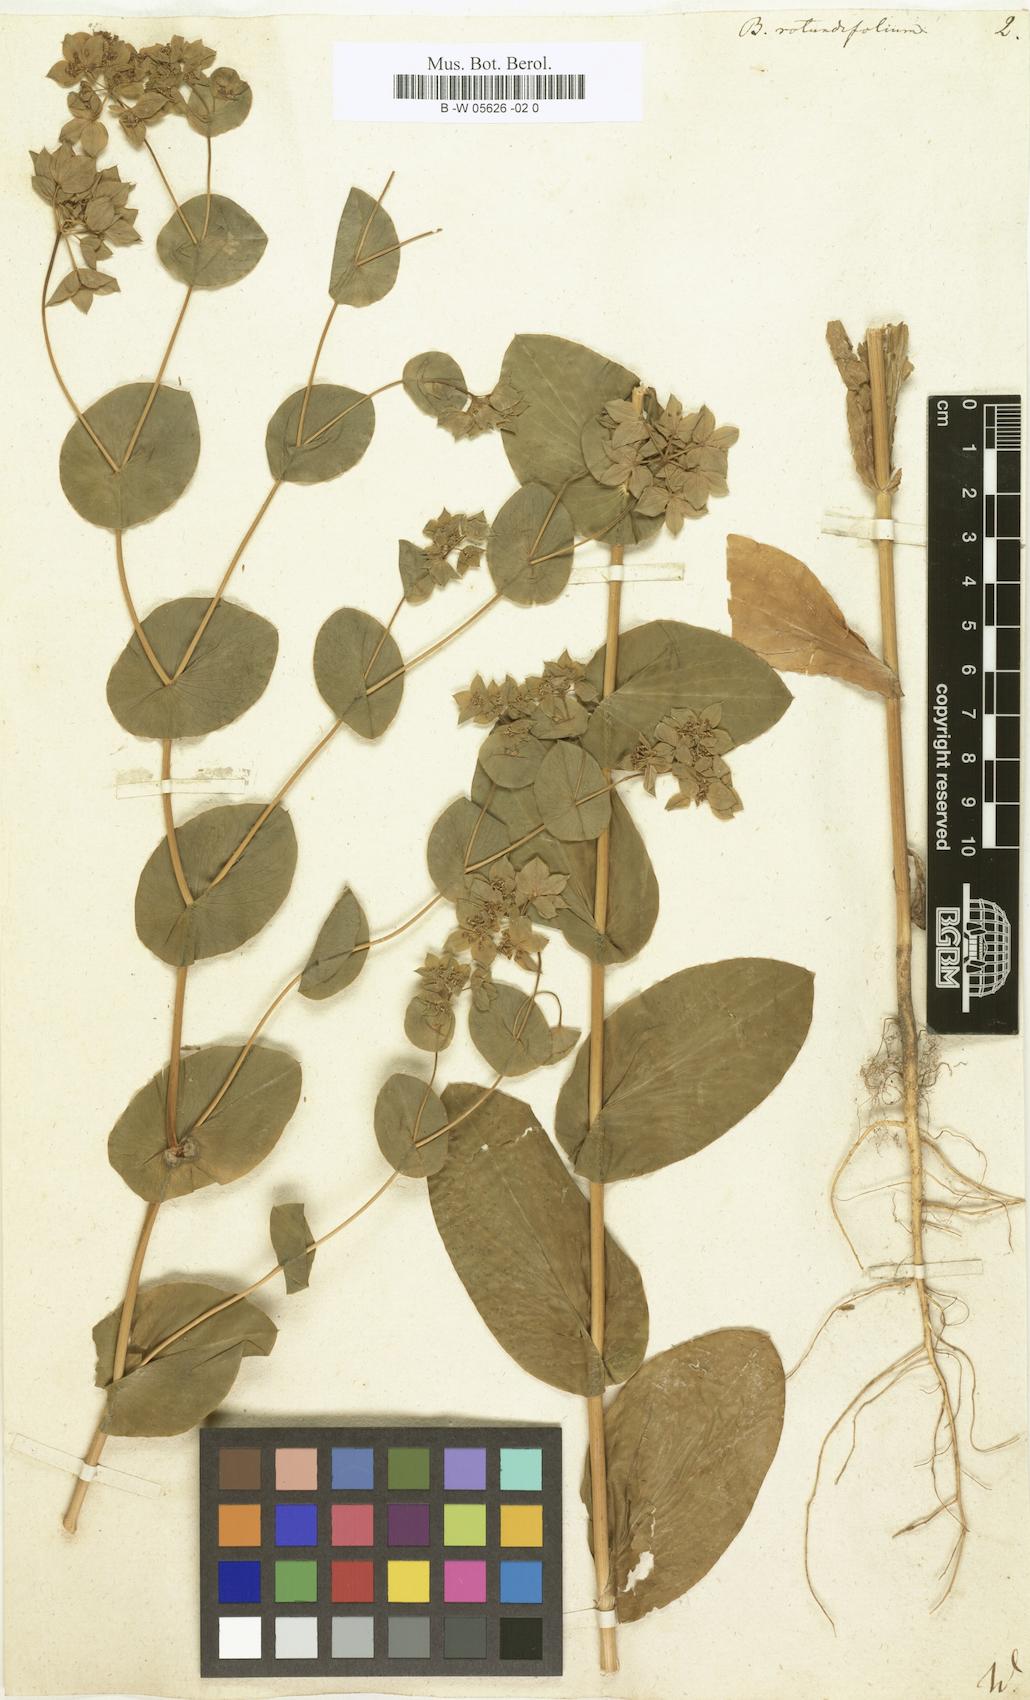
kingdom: Plantae
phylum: Tracheophyta
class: Magnoliopsida
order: Apiales
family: Apiaceae
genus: Bupleurum
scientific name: Bupleurum rotundifolium
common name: Thorow-wax
